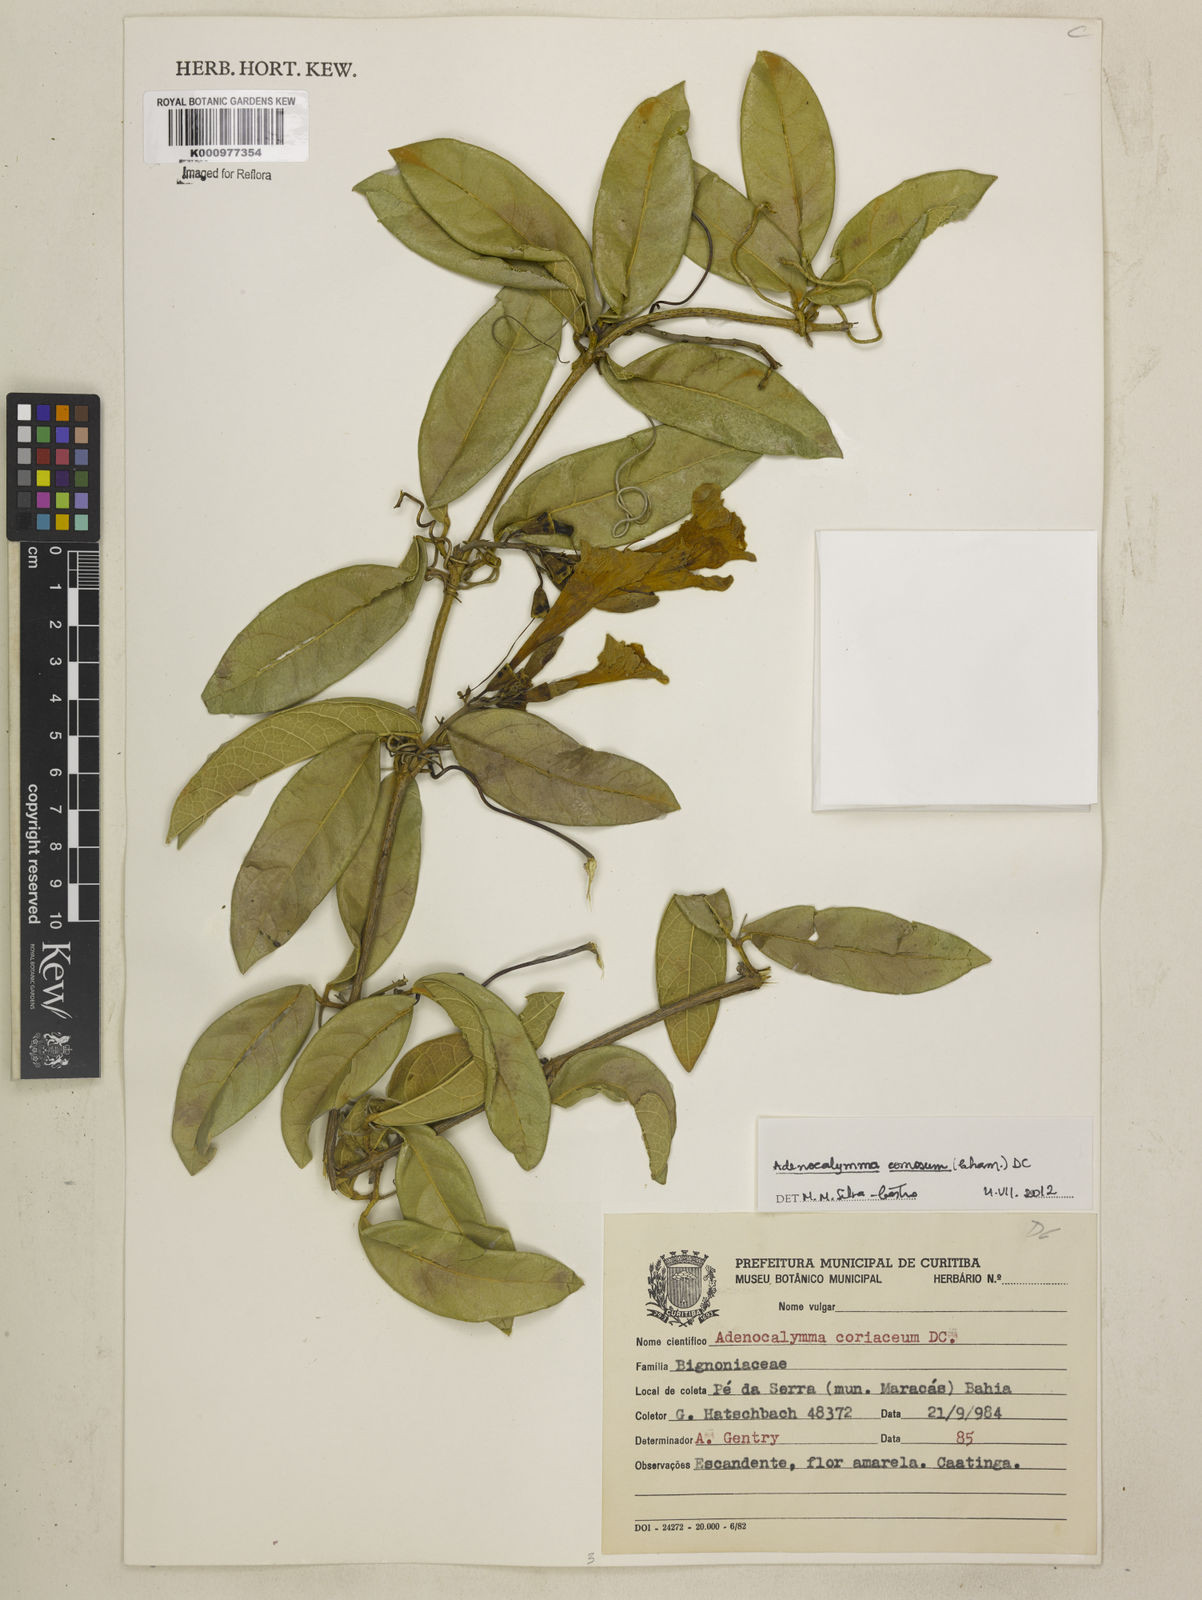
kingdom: Plantae
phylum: Tracheophyta
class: Magnoliopsida
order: Lamiales
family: Bignoniaceae
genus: Anemopaegma
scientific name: Anemopaegma
